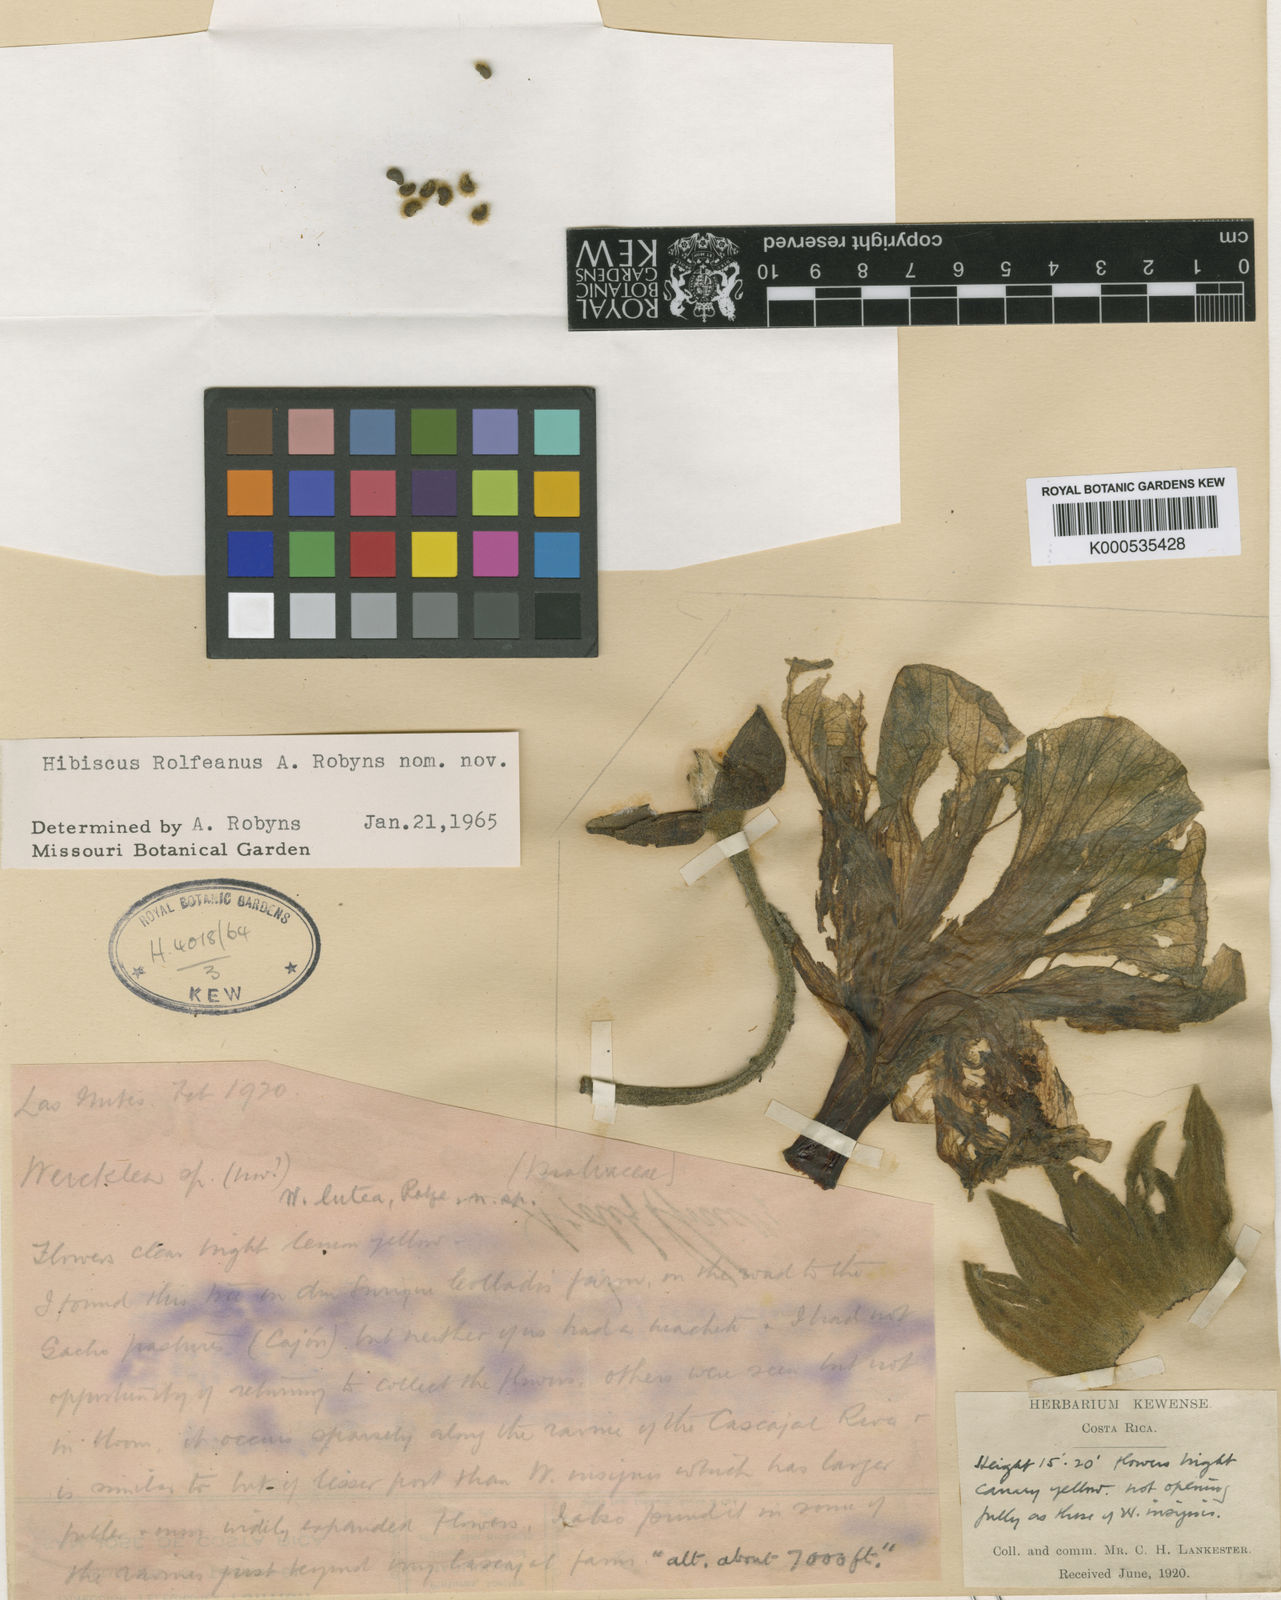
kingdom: Plantae
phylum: Tracheophyta
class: Magnoliopsida
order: Malvales
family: Malvaceae
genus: Wercklea
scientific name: Wercklea lutea
